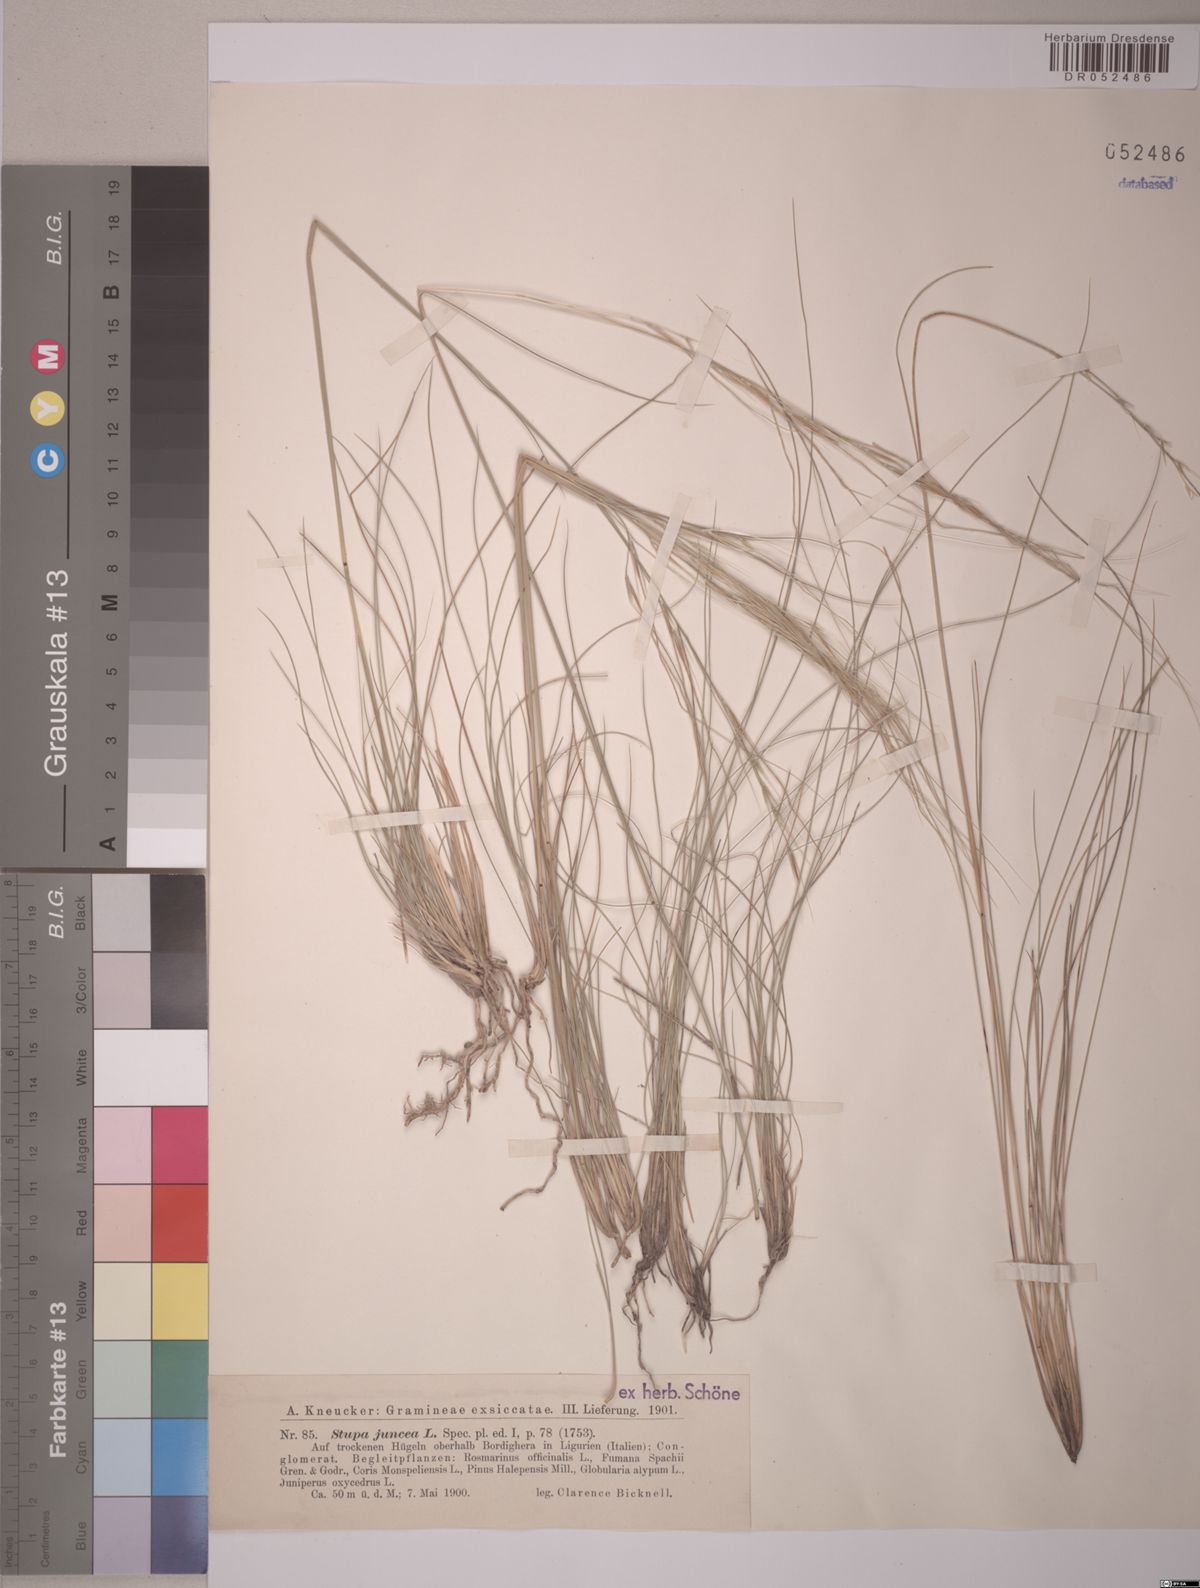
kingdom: Plantae
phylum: Tracheophyta
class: Liliopsida
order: Poales
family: Poaceae
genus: Stipa
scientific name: Stipa juncea
